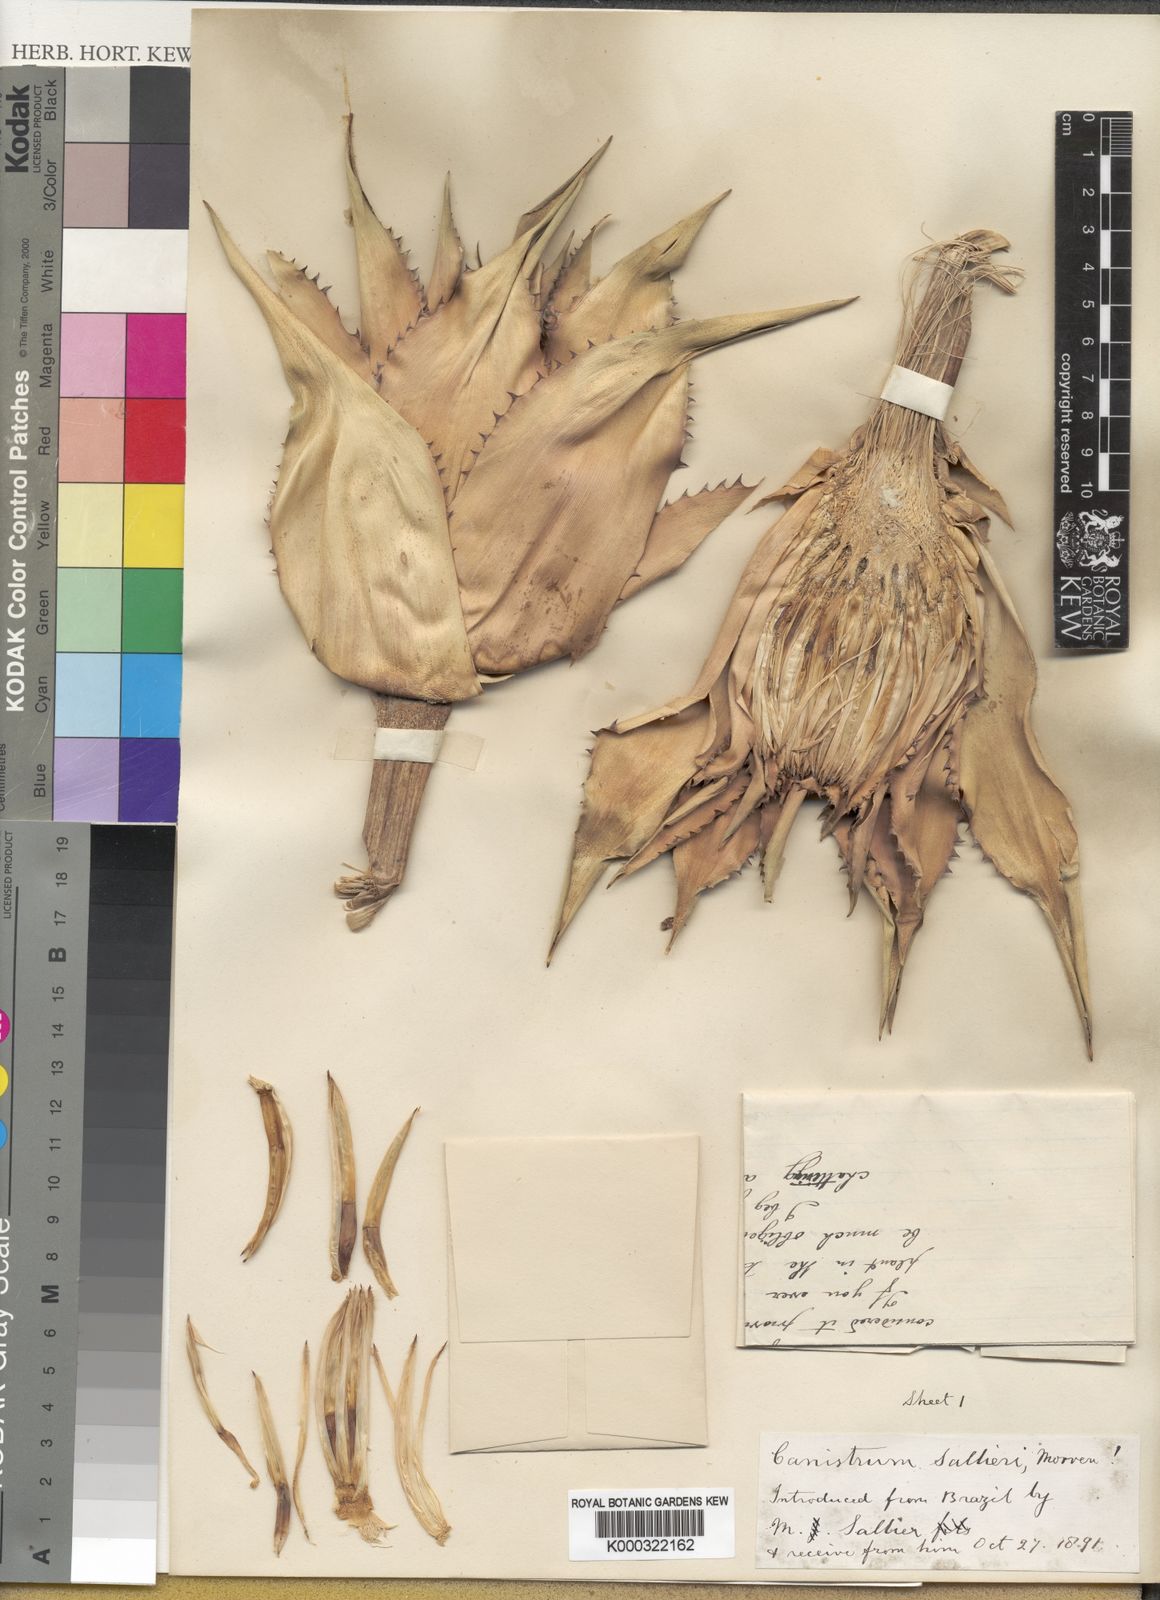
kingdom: Plantae
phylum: Tracheophyta
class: Liliopsida
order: Poales
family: Bromeliaceae
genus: Canistrum
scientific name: Canistrum
